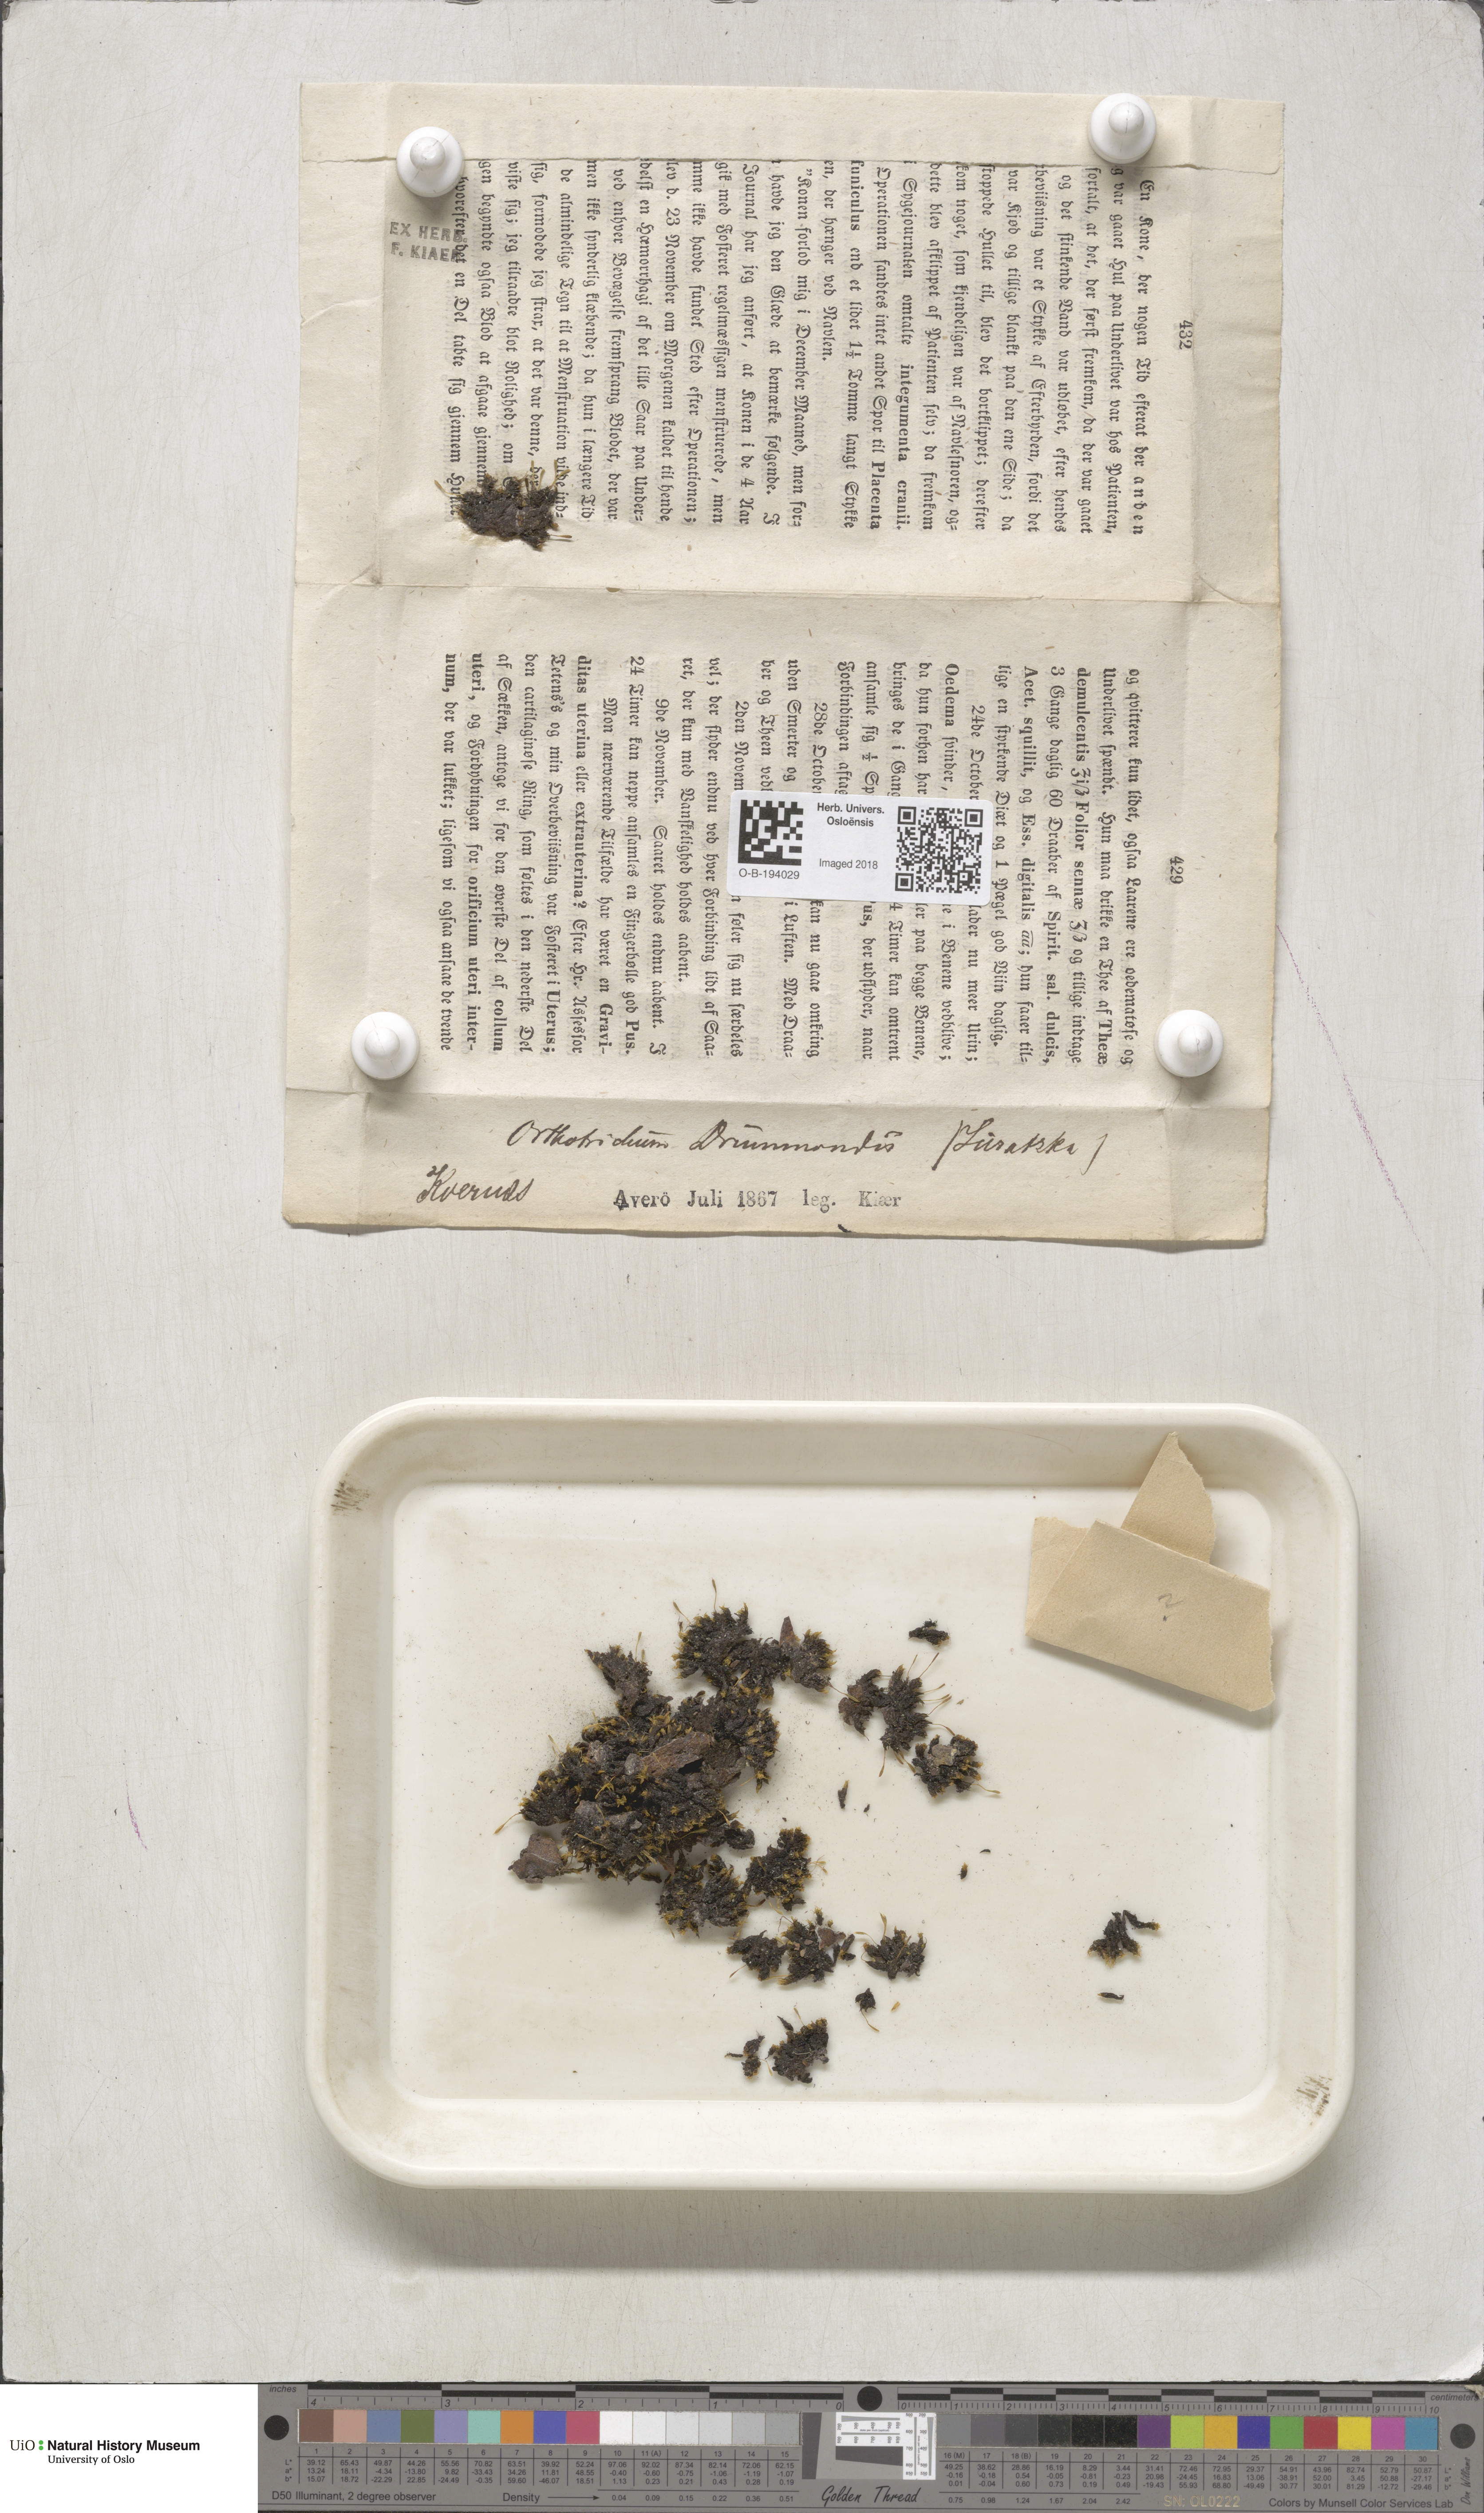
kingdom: Plantae
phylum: Bryophyta
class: Bryopsida
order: Orthotrichales
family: Orthotrichaceae
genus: Ulota
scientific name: Ulota drummondii
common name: Drummond's pincushion moss
